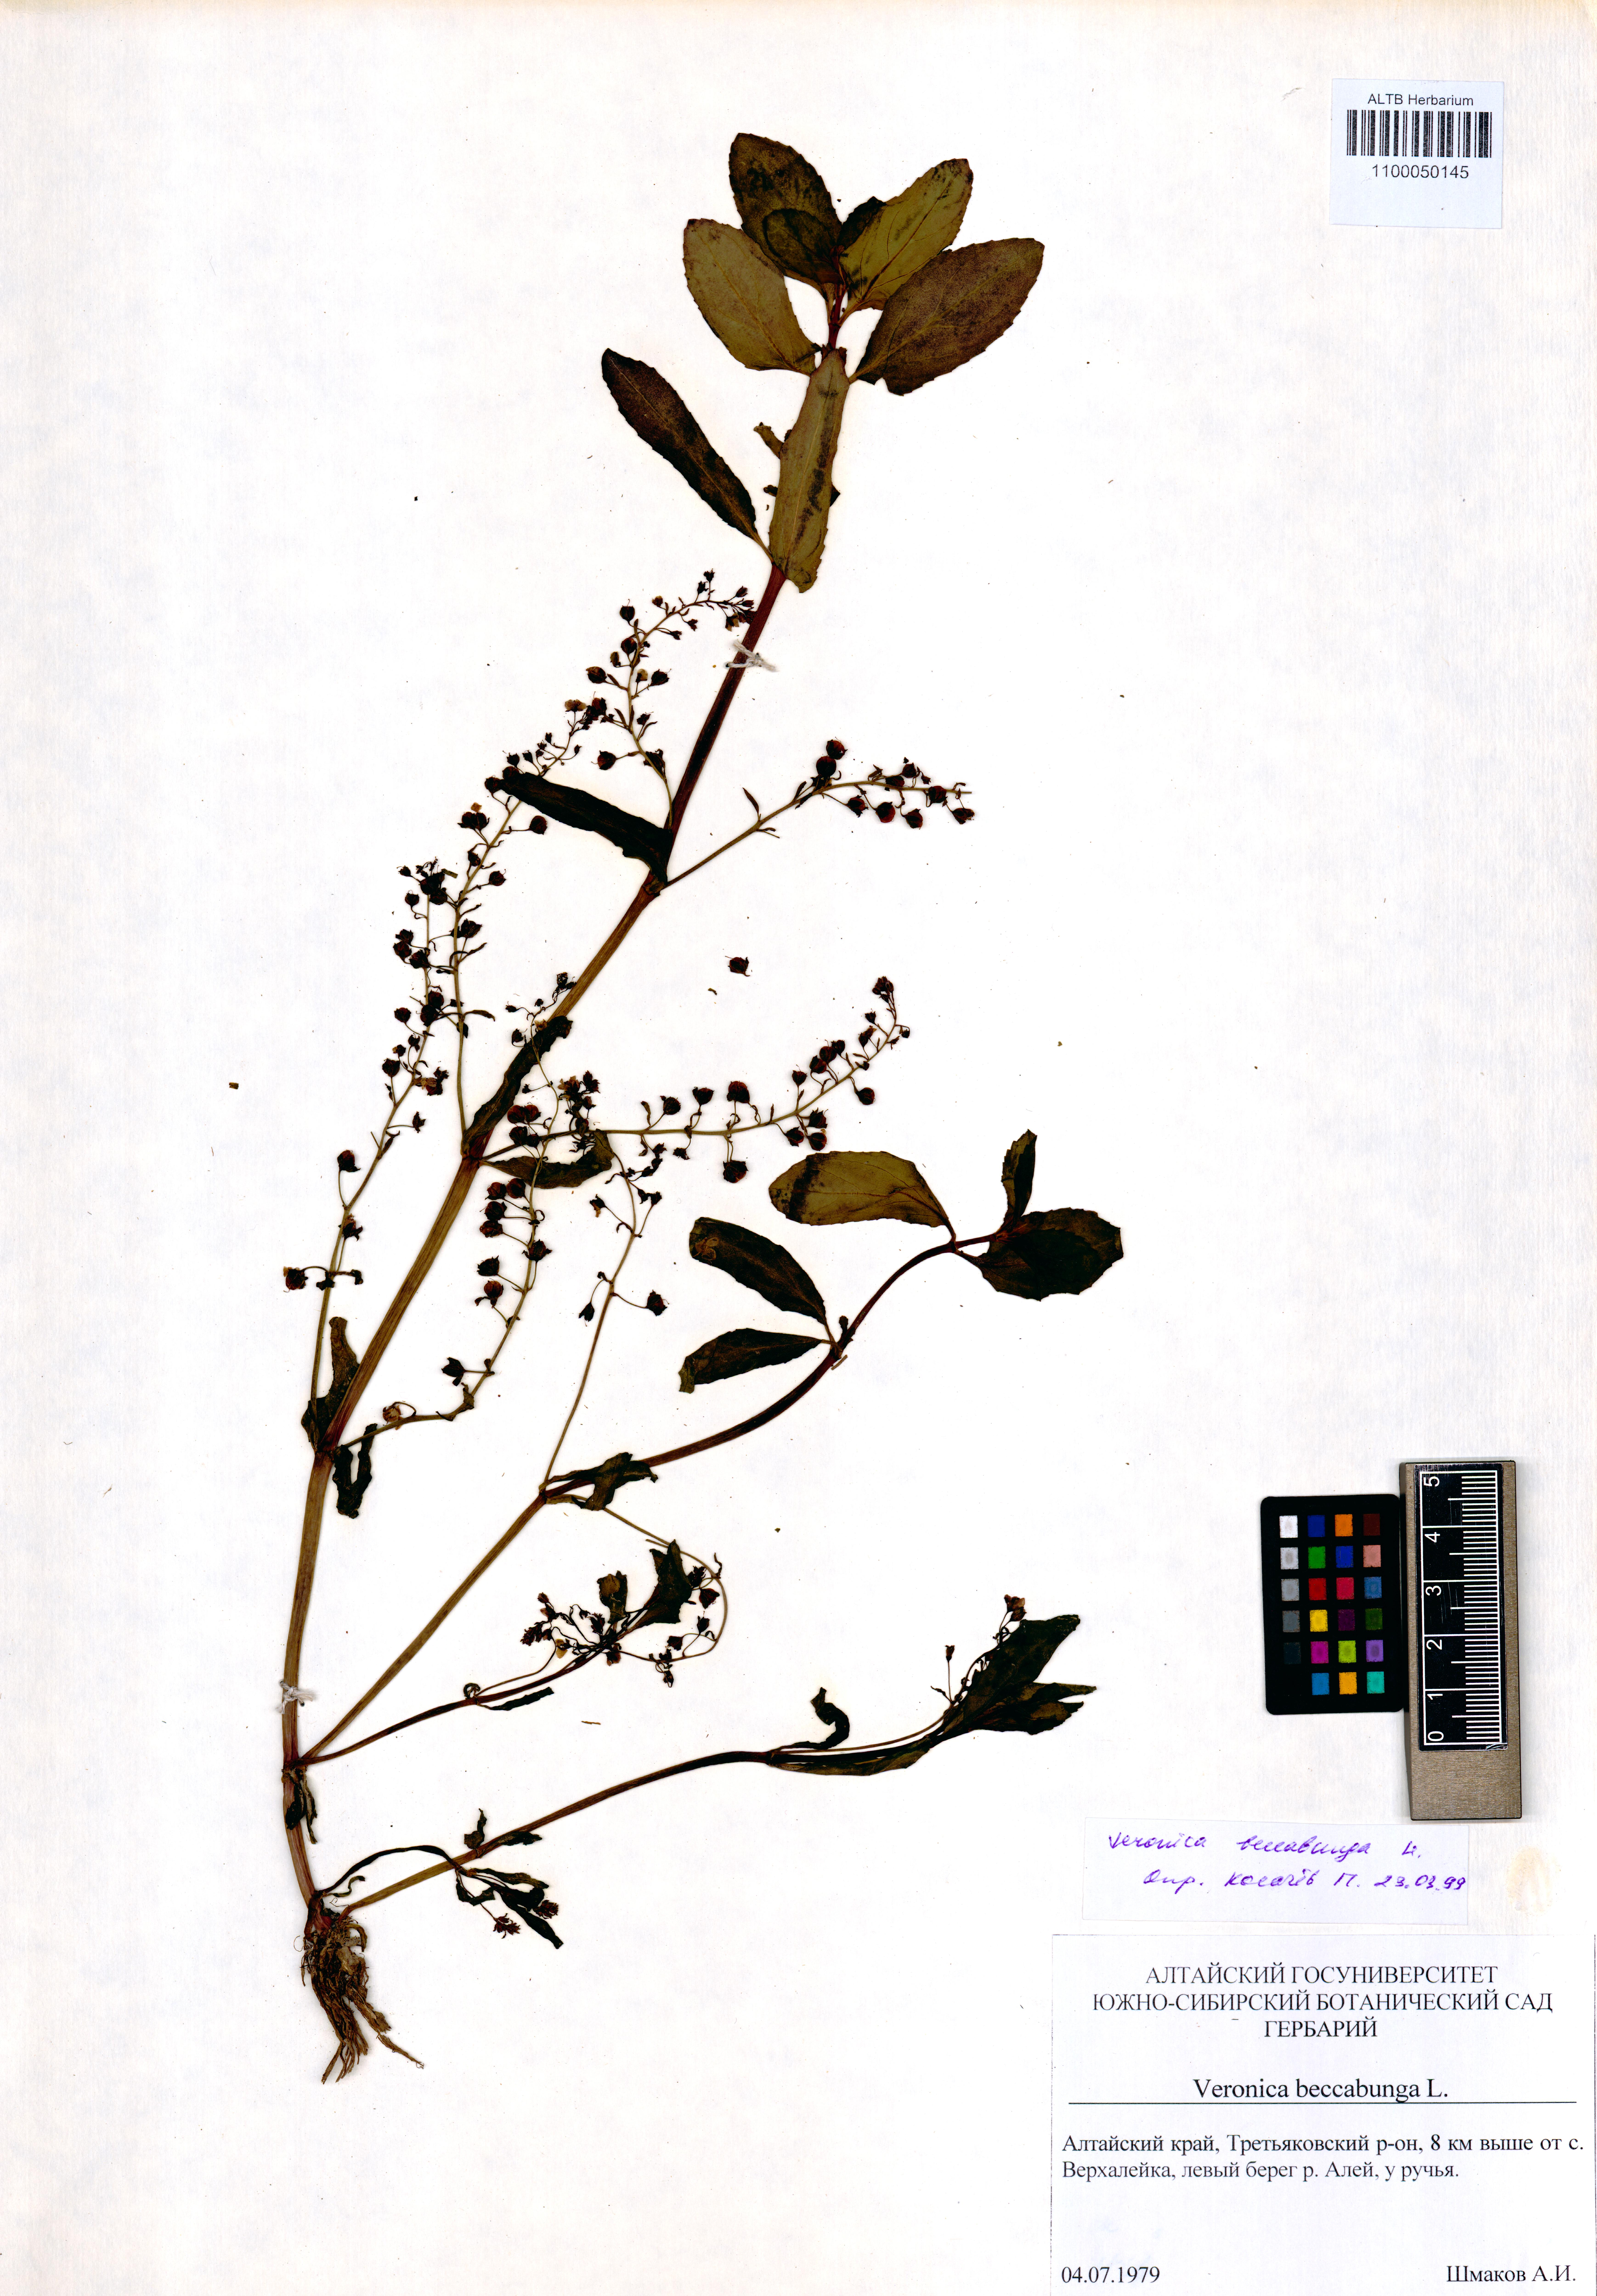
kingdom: Plantae
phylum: Tracheophyta
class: Magnoliopsida
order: Lamiales
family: Plantaginaceae
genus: Veronica
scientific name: Veronica beccabunga
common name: Brooklime
